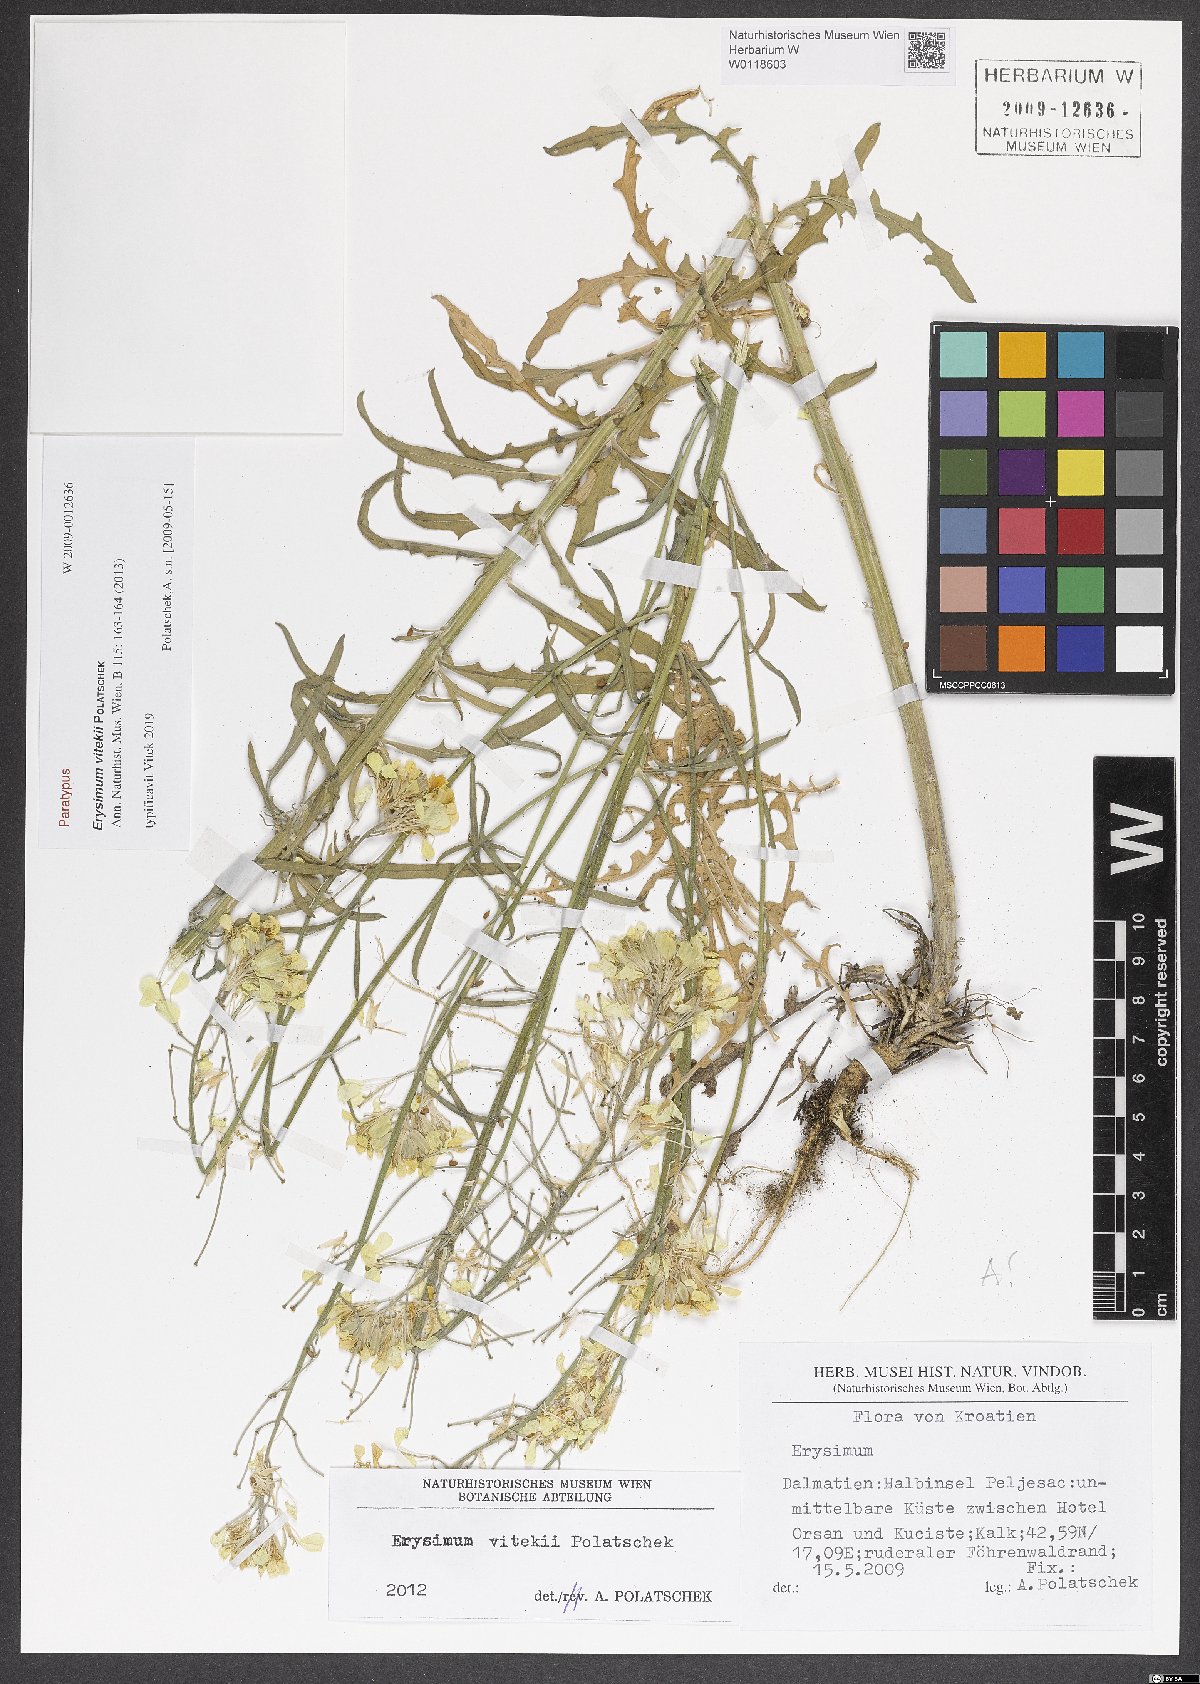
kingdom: Plantae
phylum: Tracheophyta
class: Magnoliopsida
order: Brassicales
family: Brassicaceae
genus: Erysimum
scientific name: Erysimum vitekii
